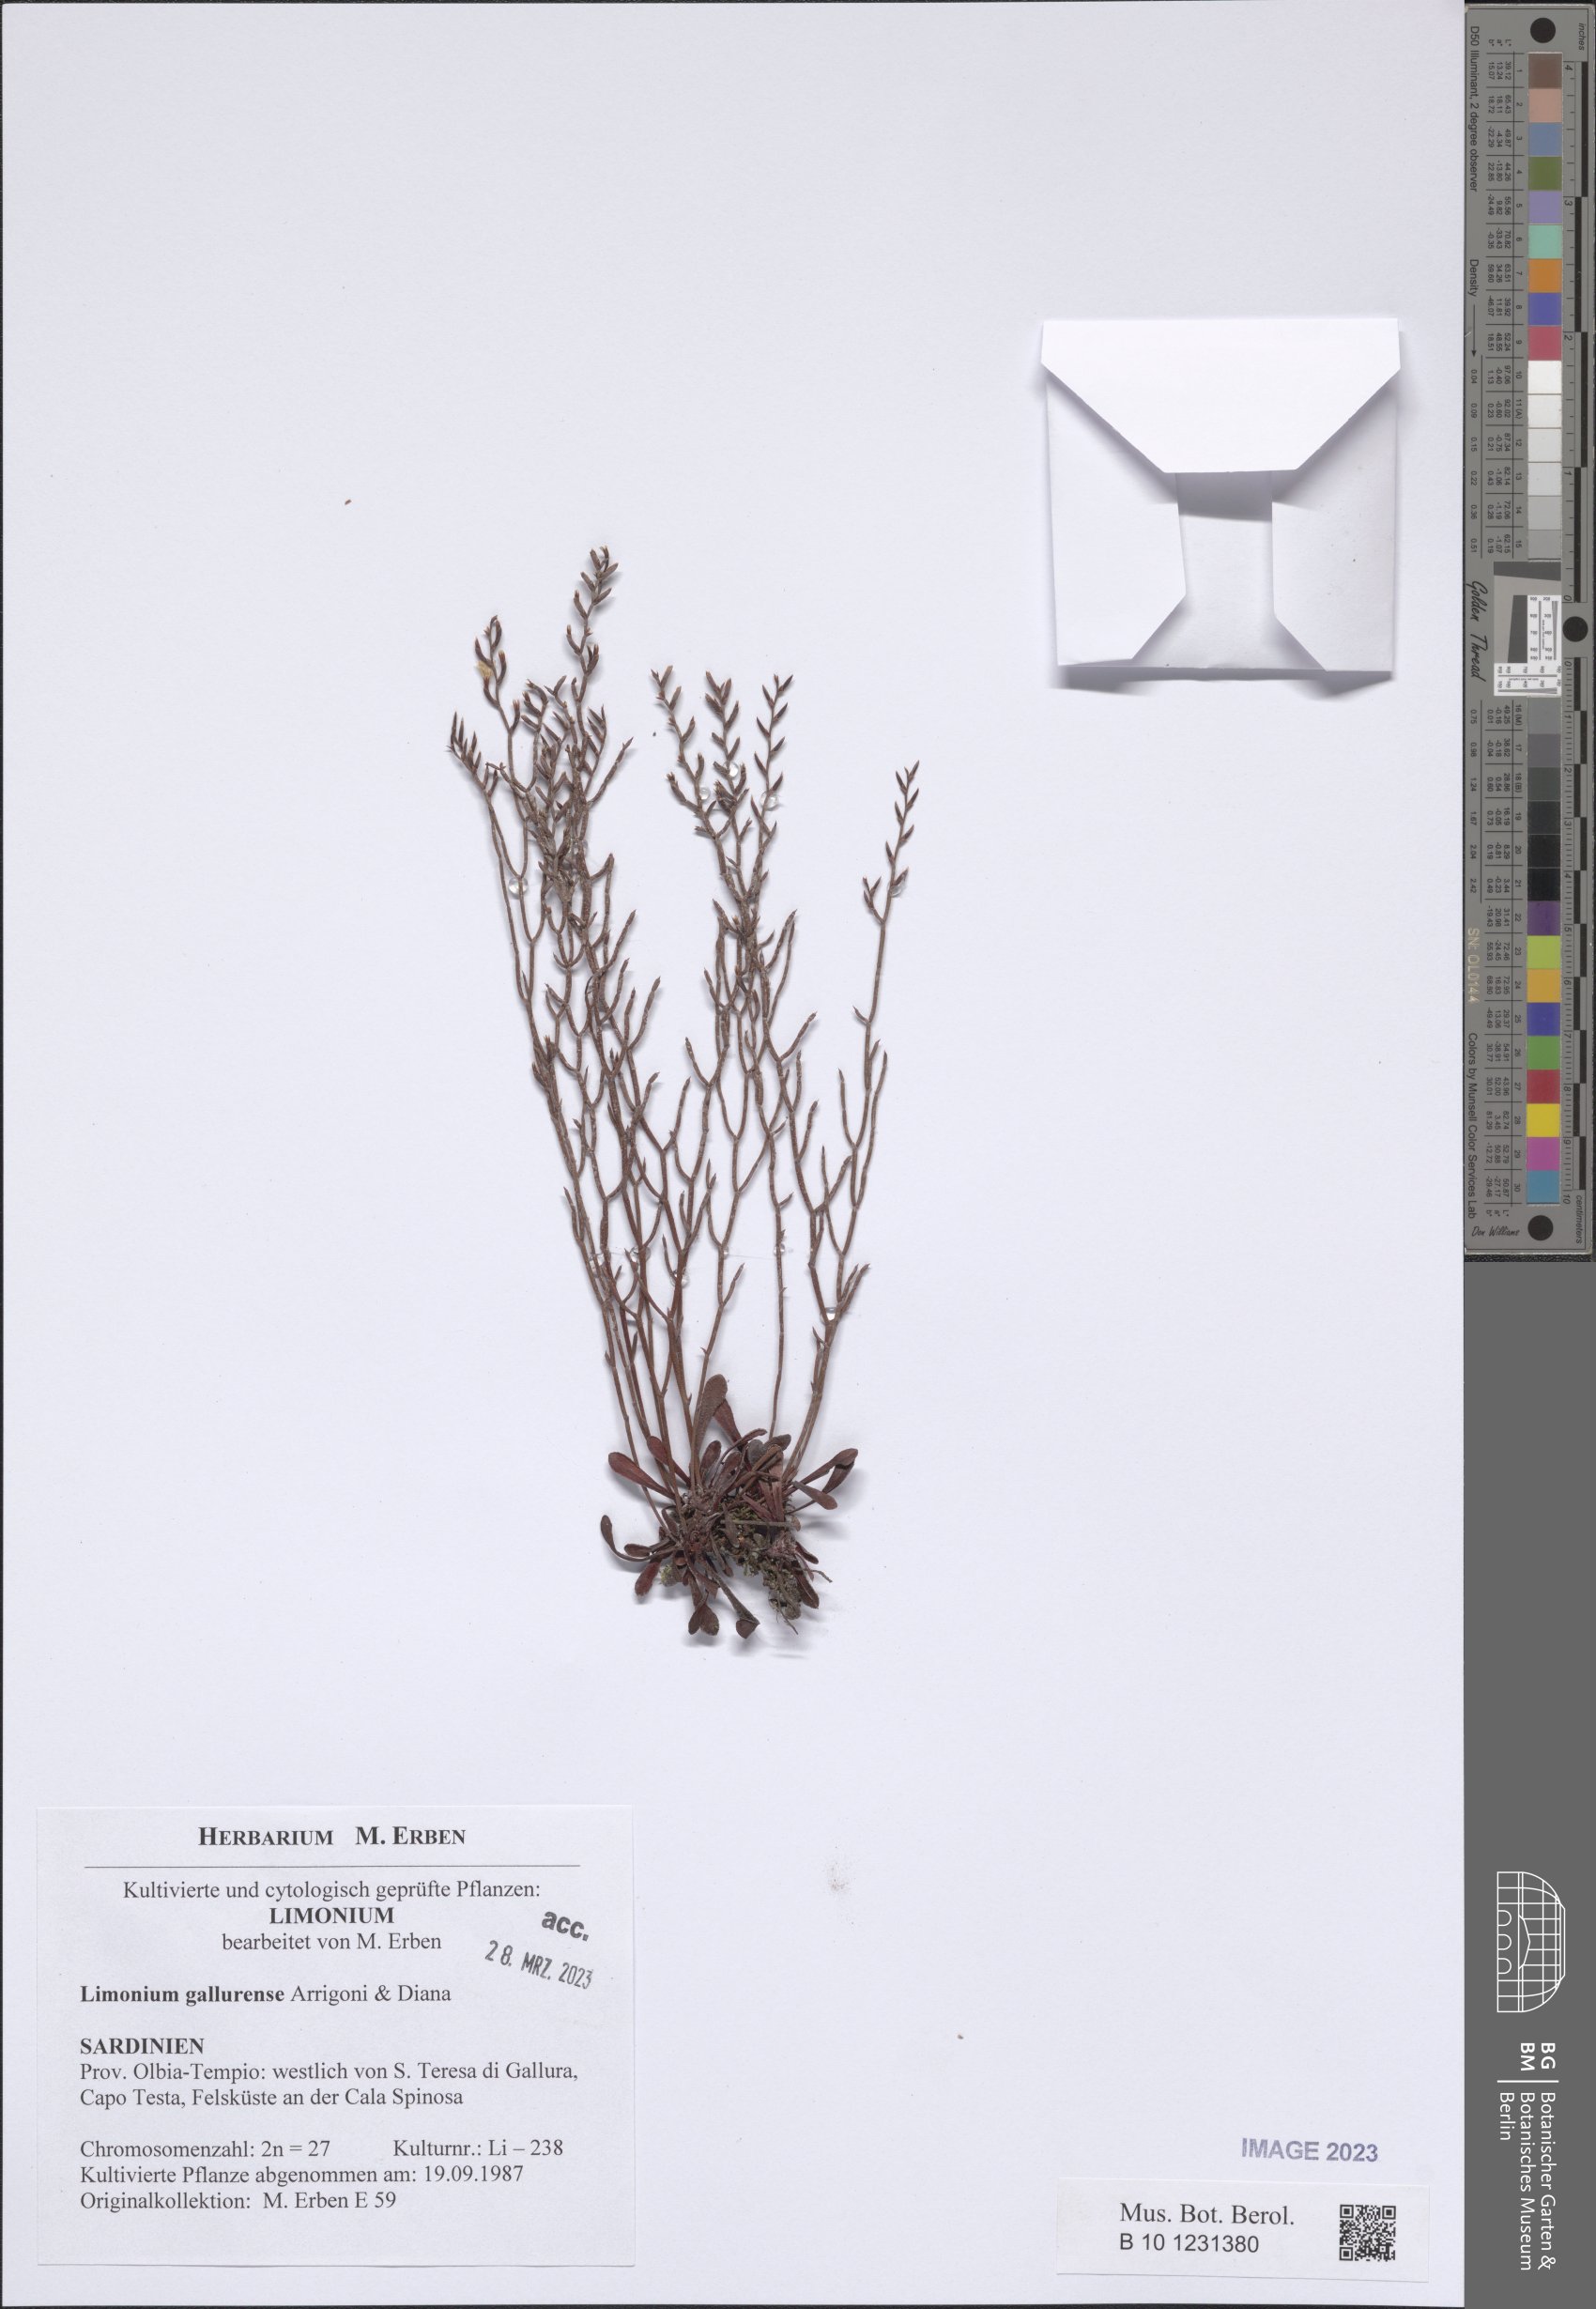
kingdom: Plantae
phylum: Tracheophyta
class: Magnoliopsida
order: Caryophyllales
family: Plumbaginaceae
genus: Limonium
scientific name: Limonium gallurense
